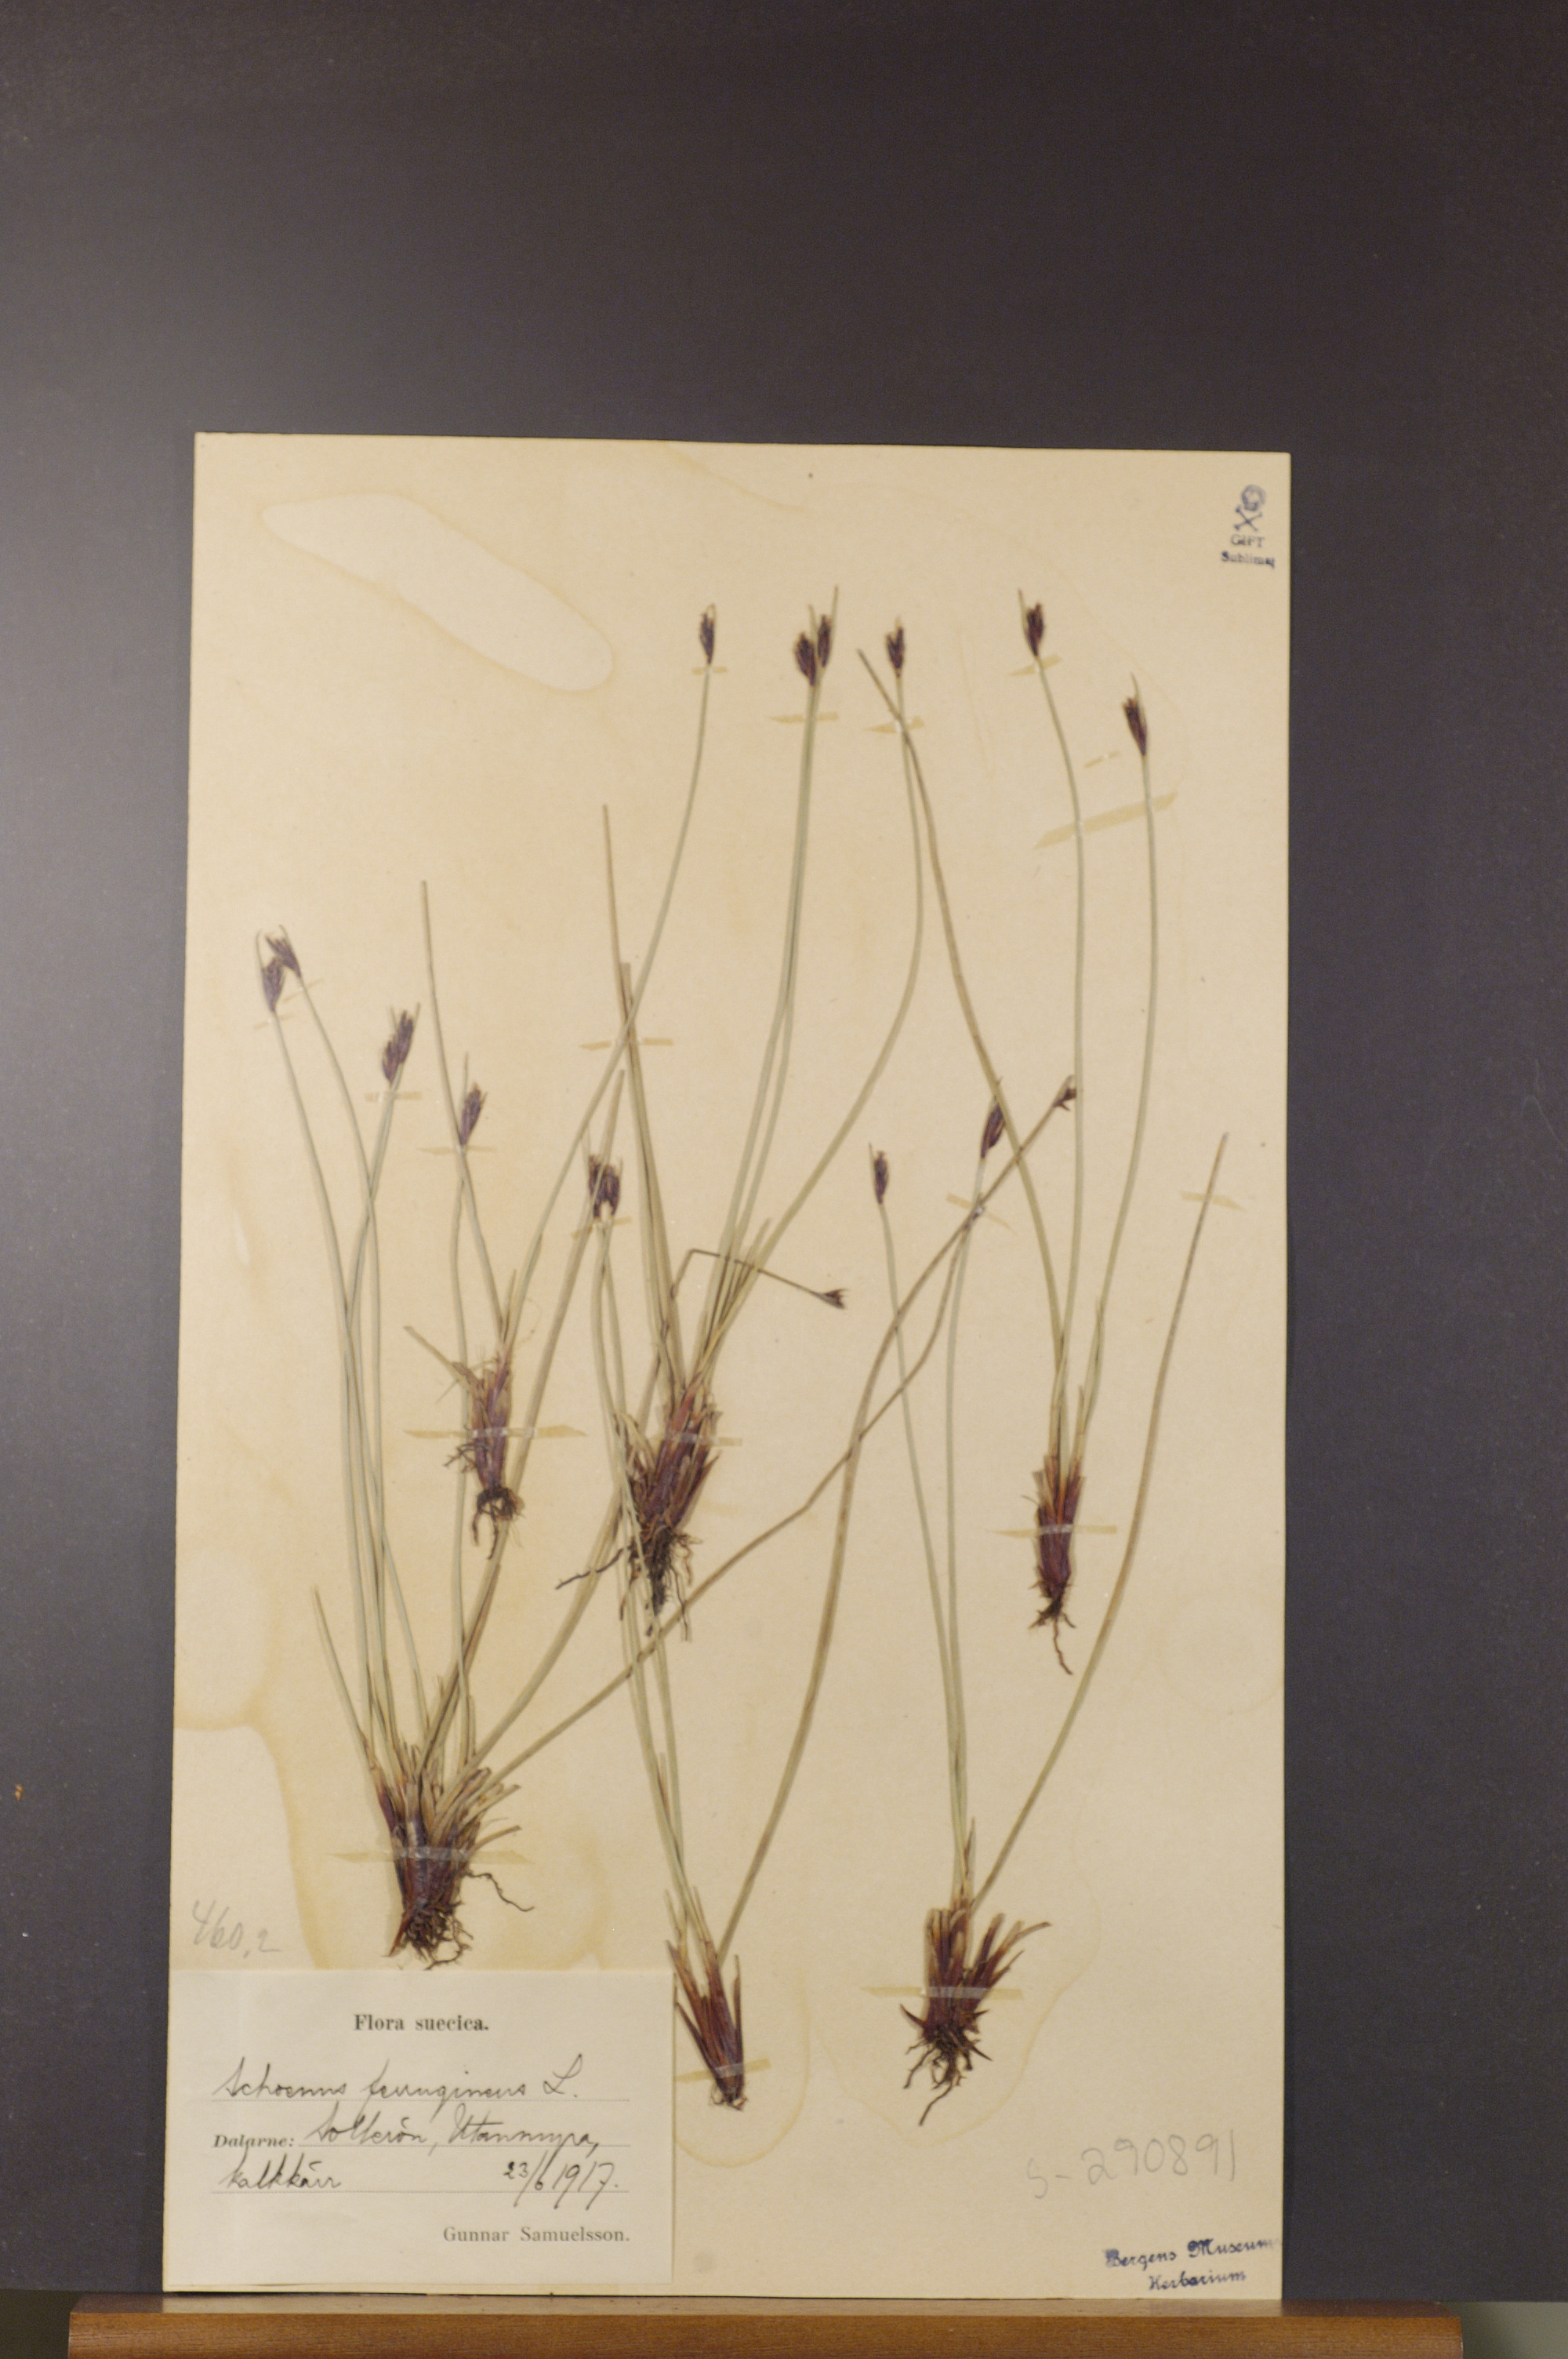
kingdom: Plantae
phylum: Tracheophyta
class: Liliopsida
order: Poales
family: Cyperaceae
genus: Schoenus
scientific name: Schoenus ferrugineus
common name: Brown bog-rush
